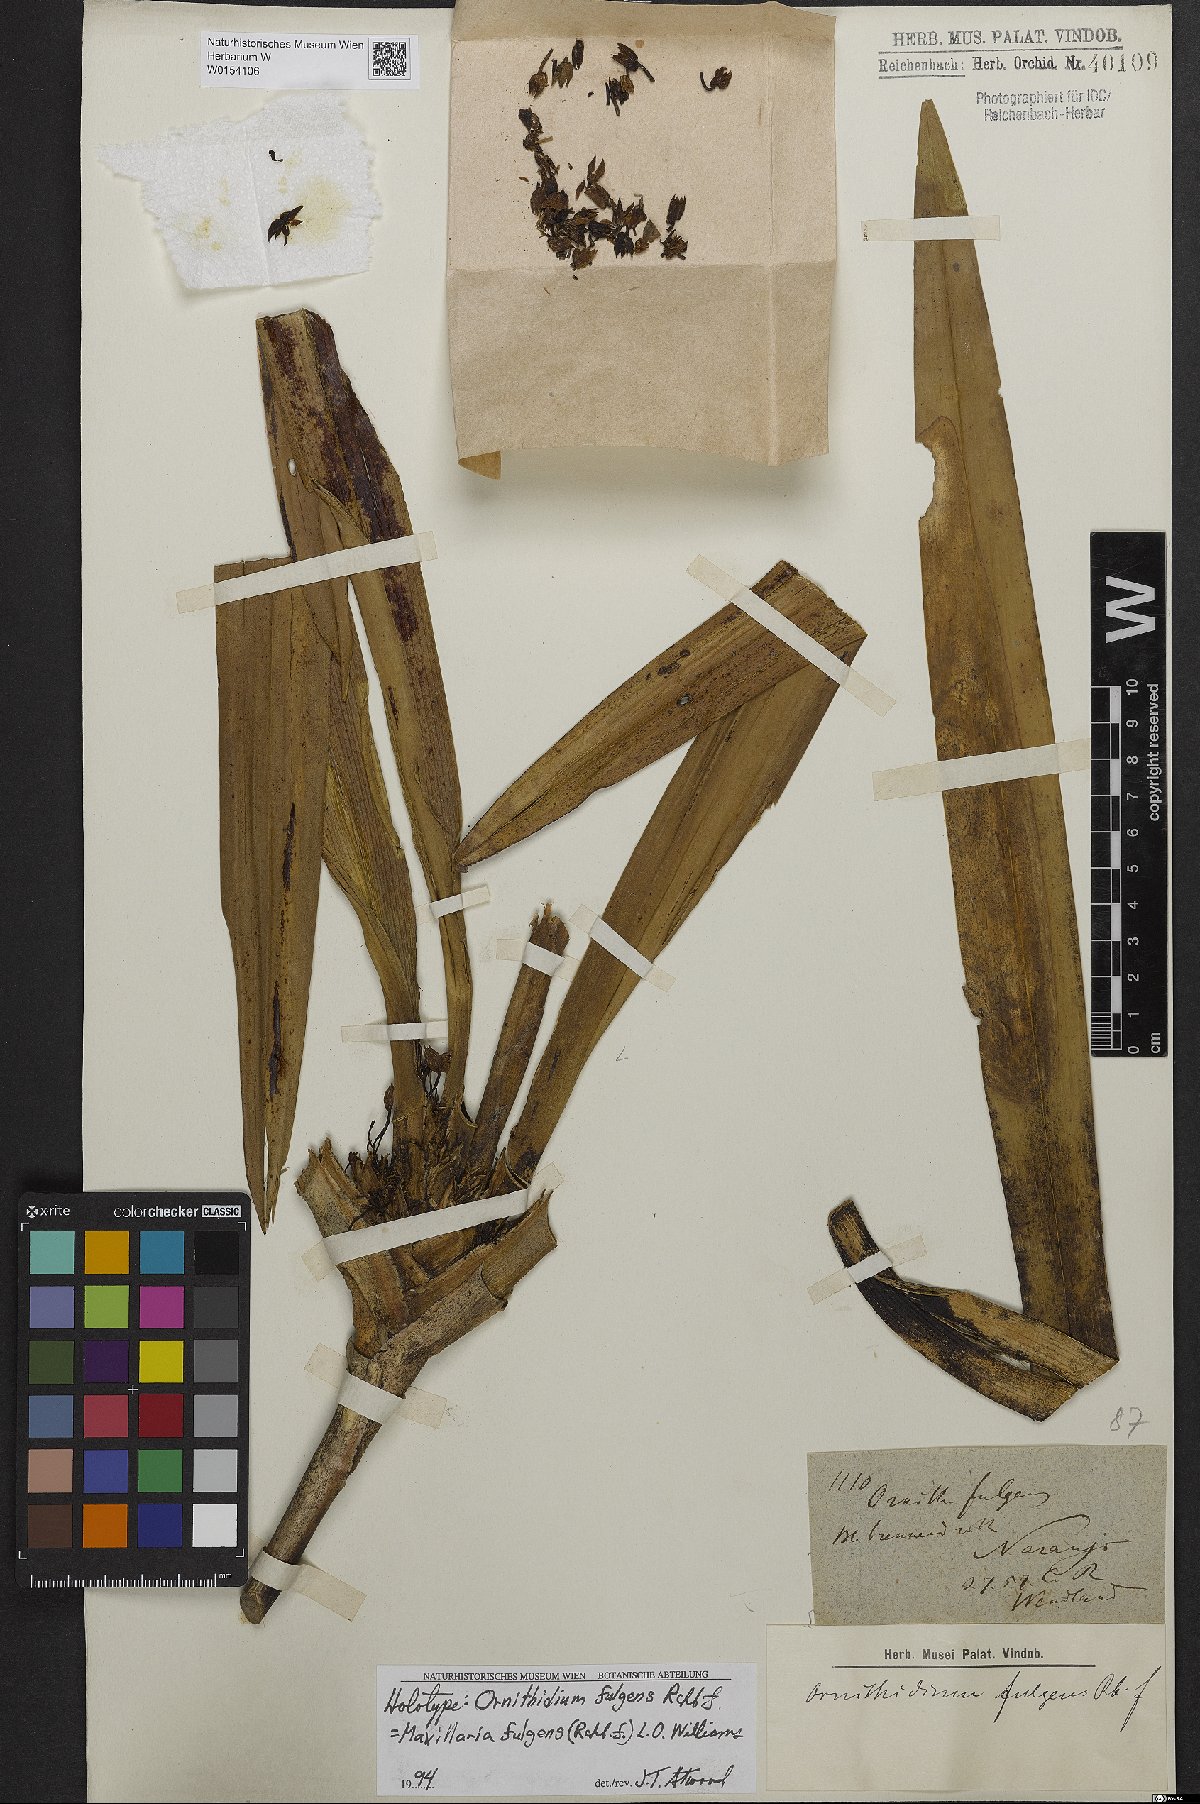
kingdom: Plantae
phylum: Tracheophyta
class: Liliopsida
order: Asparagales
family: Orchidaceae
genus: Maxillaria
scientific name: Maxillaria fulgens
